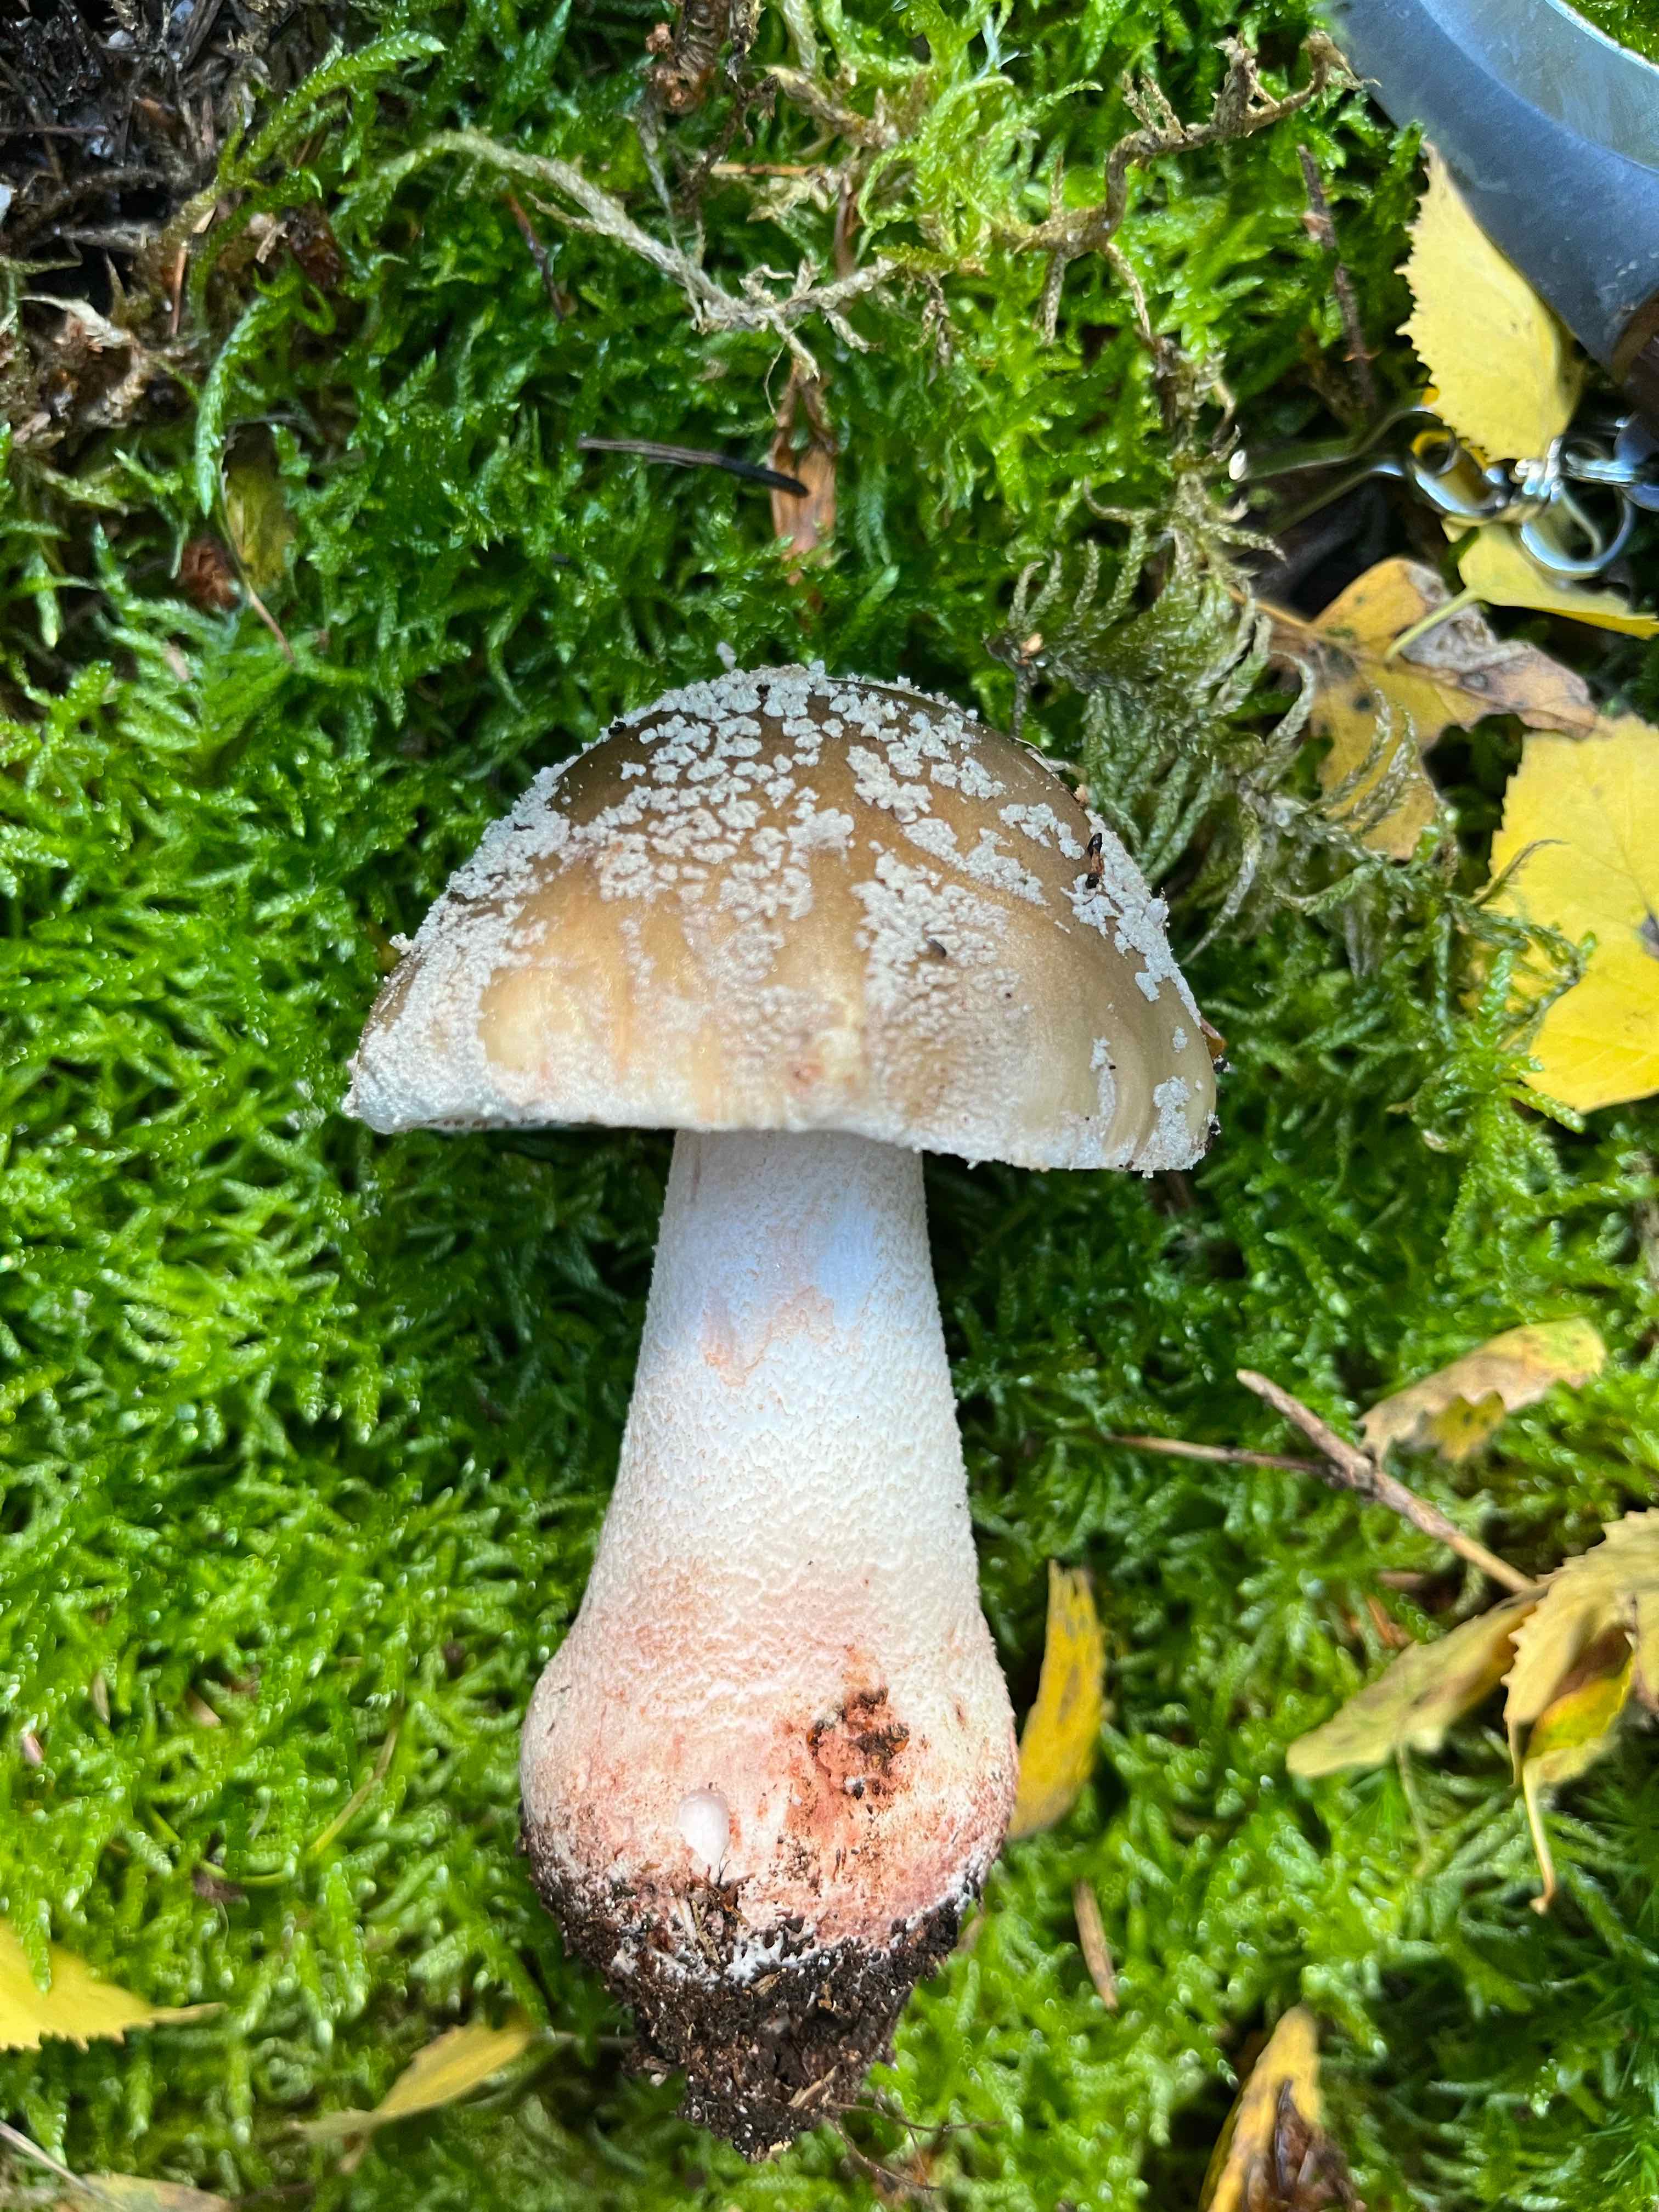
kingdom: Fungi
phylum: Basidiomycota
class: Agaricomycetes
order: Agaricales
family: Amanitaceae
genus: Amanita
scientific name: Amanita rubescens
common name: rødmende fluesvamp
